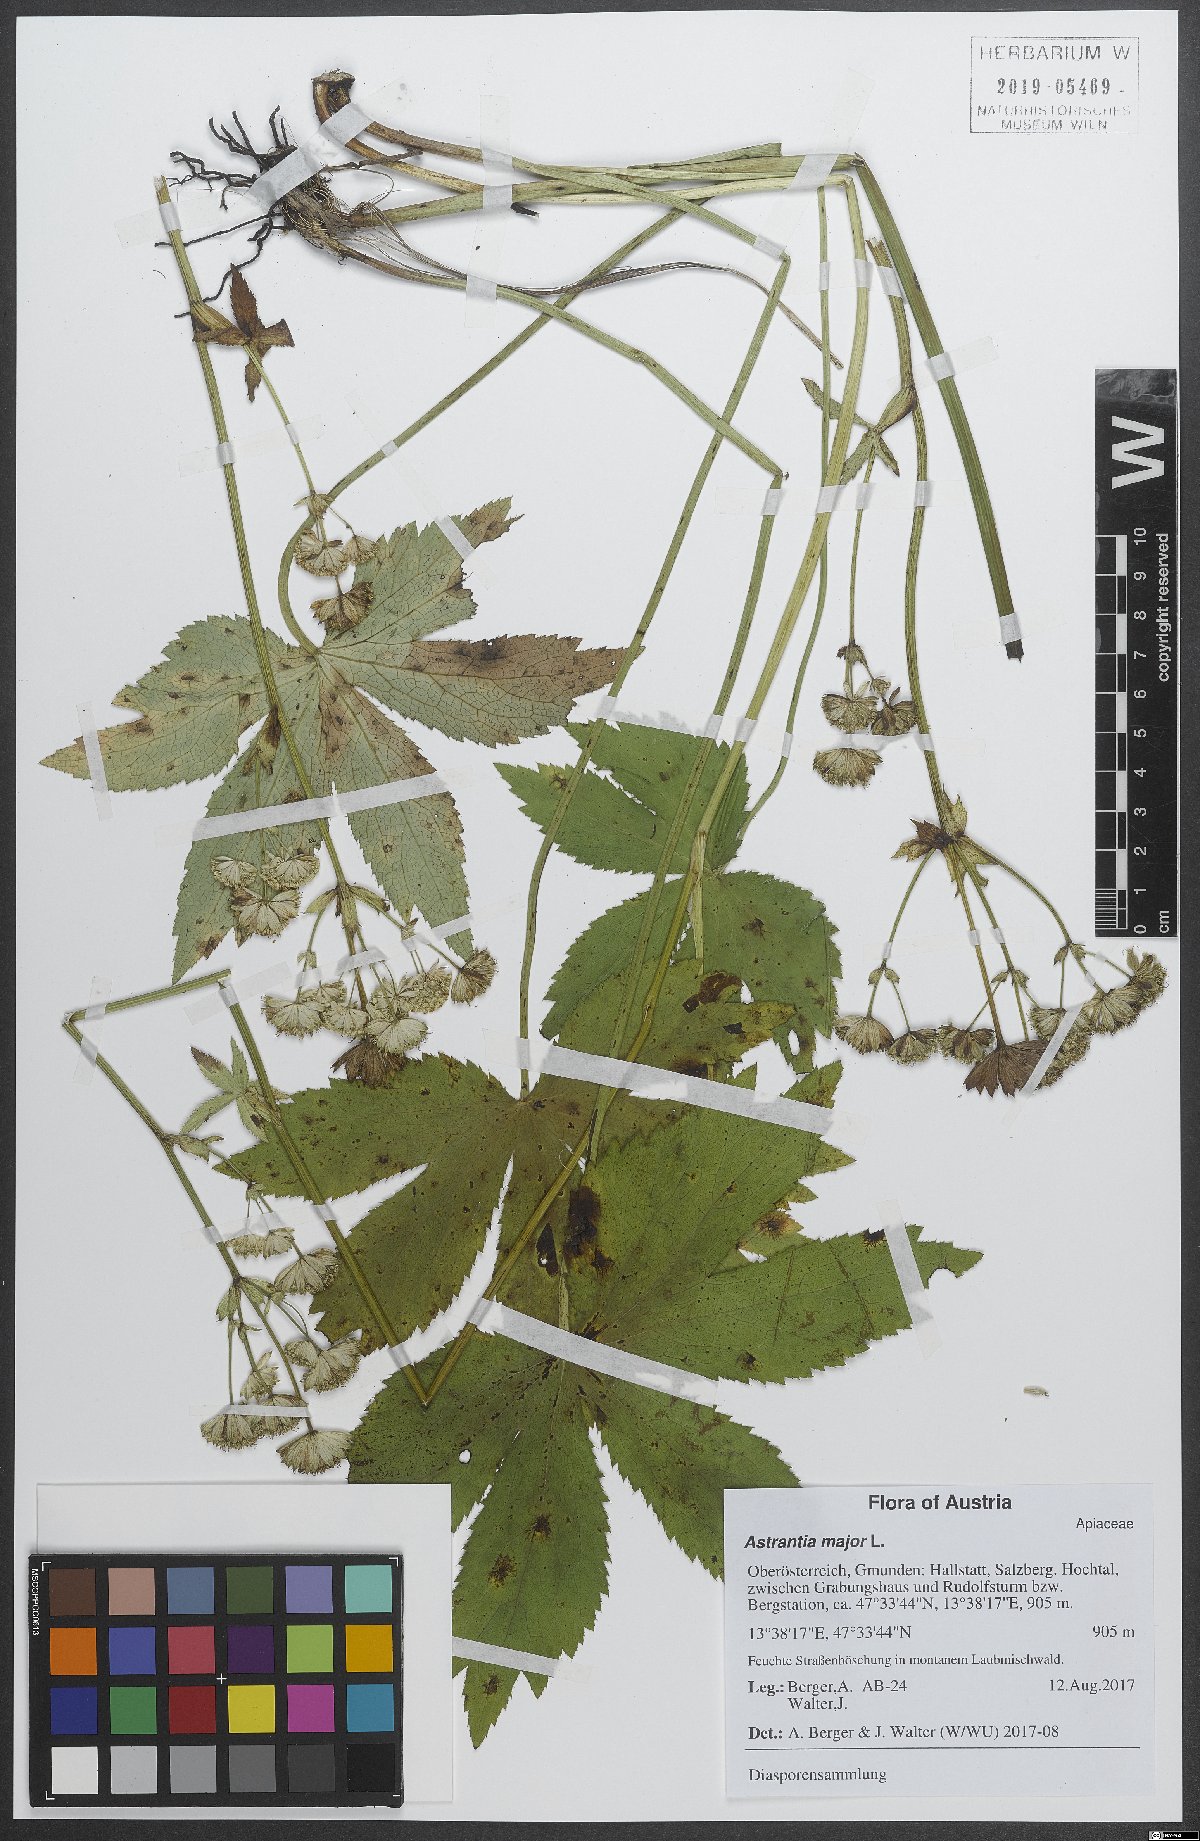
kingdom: Plantae
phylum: Tracheophyta
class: Magnoliopsida
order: Apiales
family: Apiaceae
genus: Astrantia
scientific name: Astrantia major
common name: Greater masterwort
